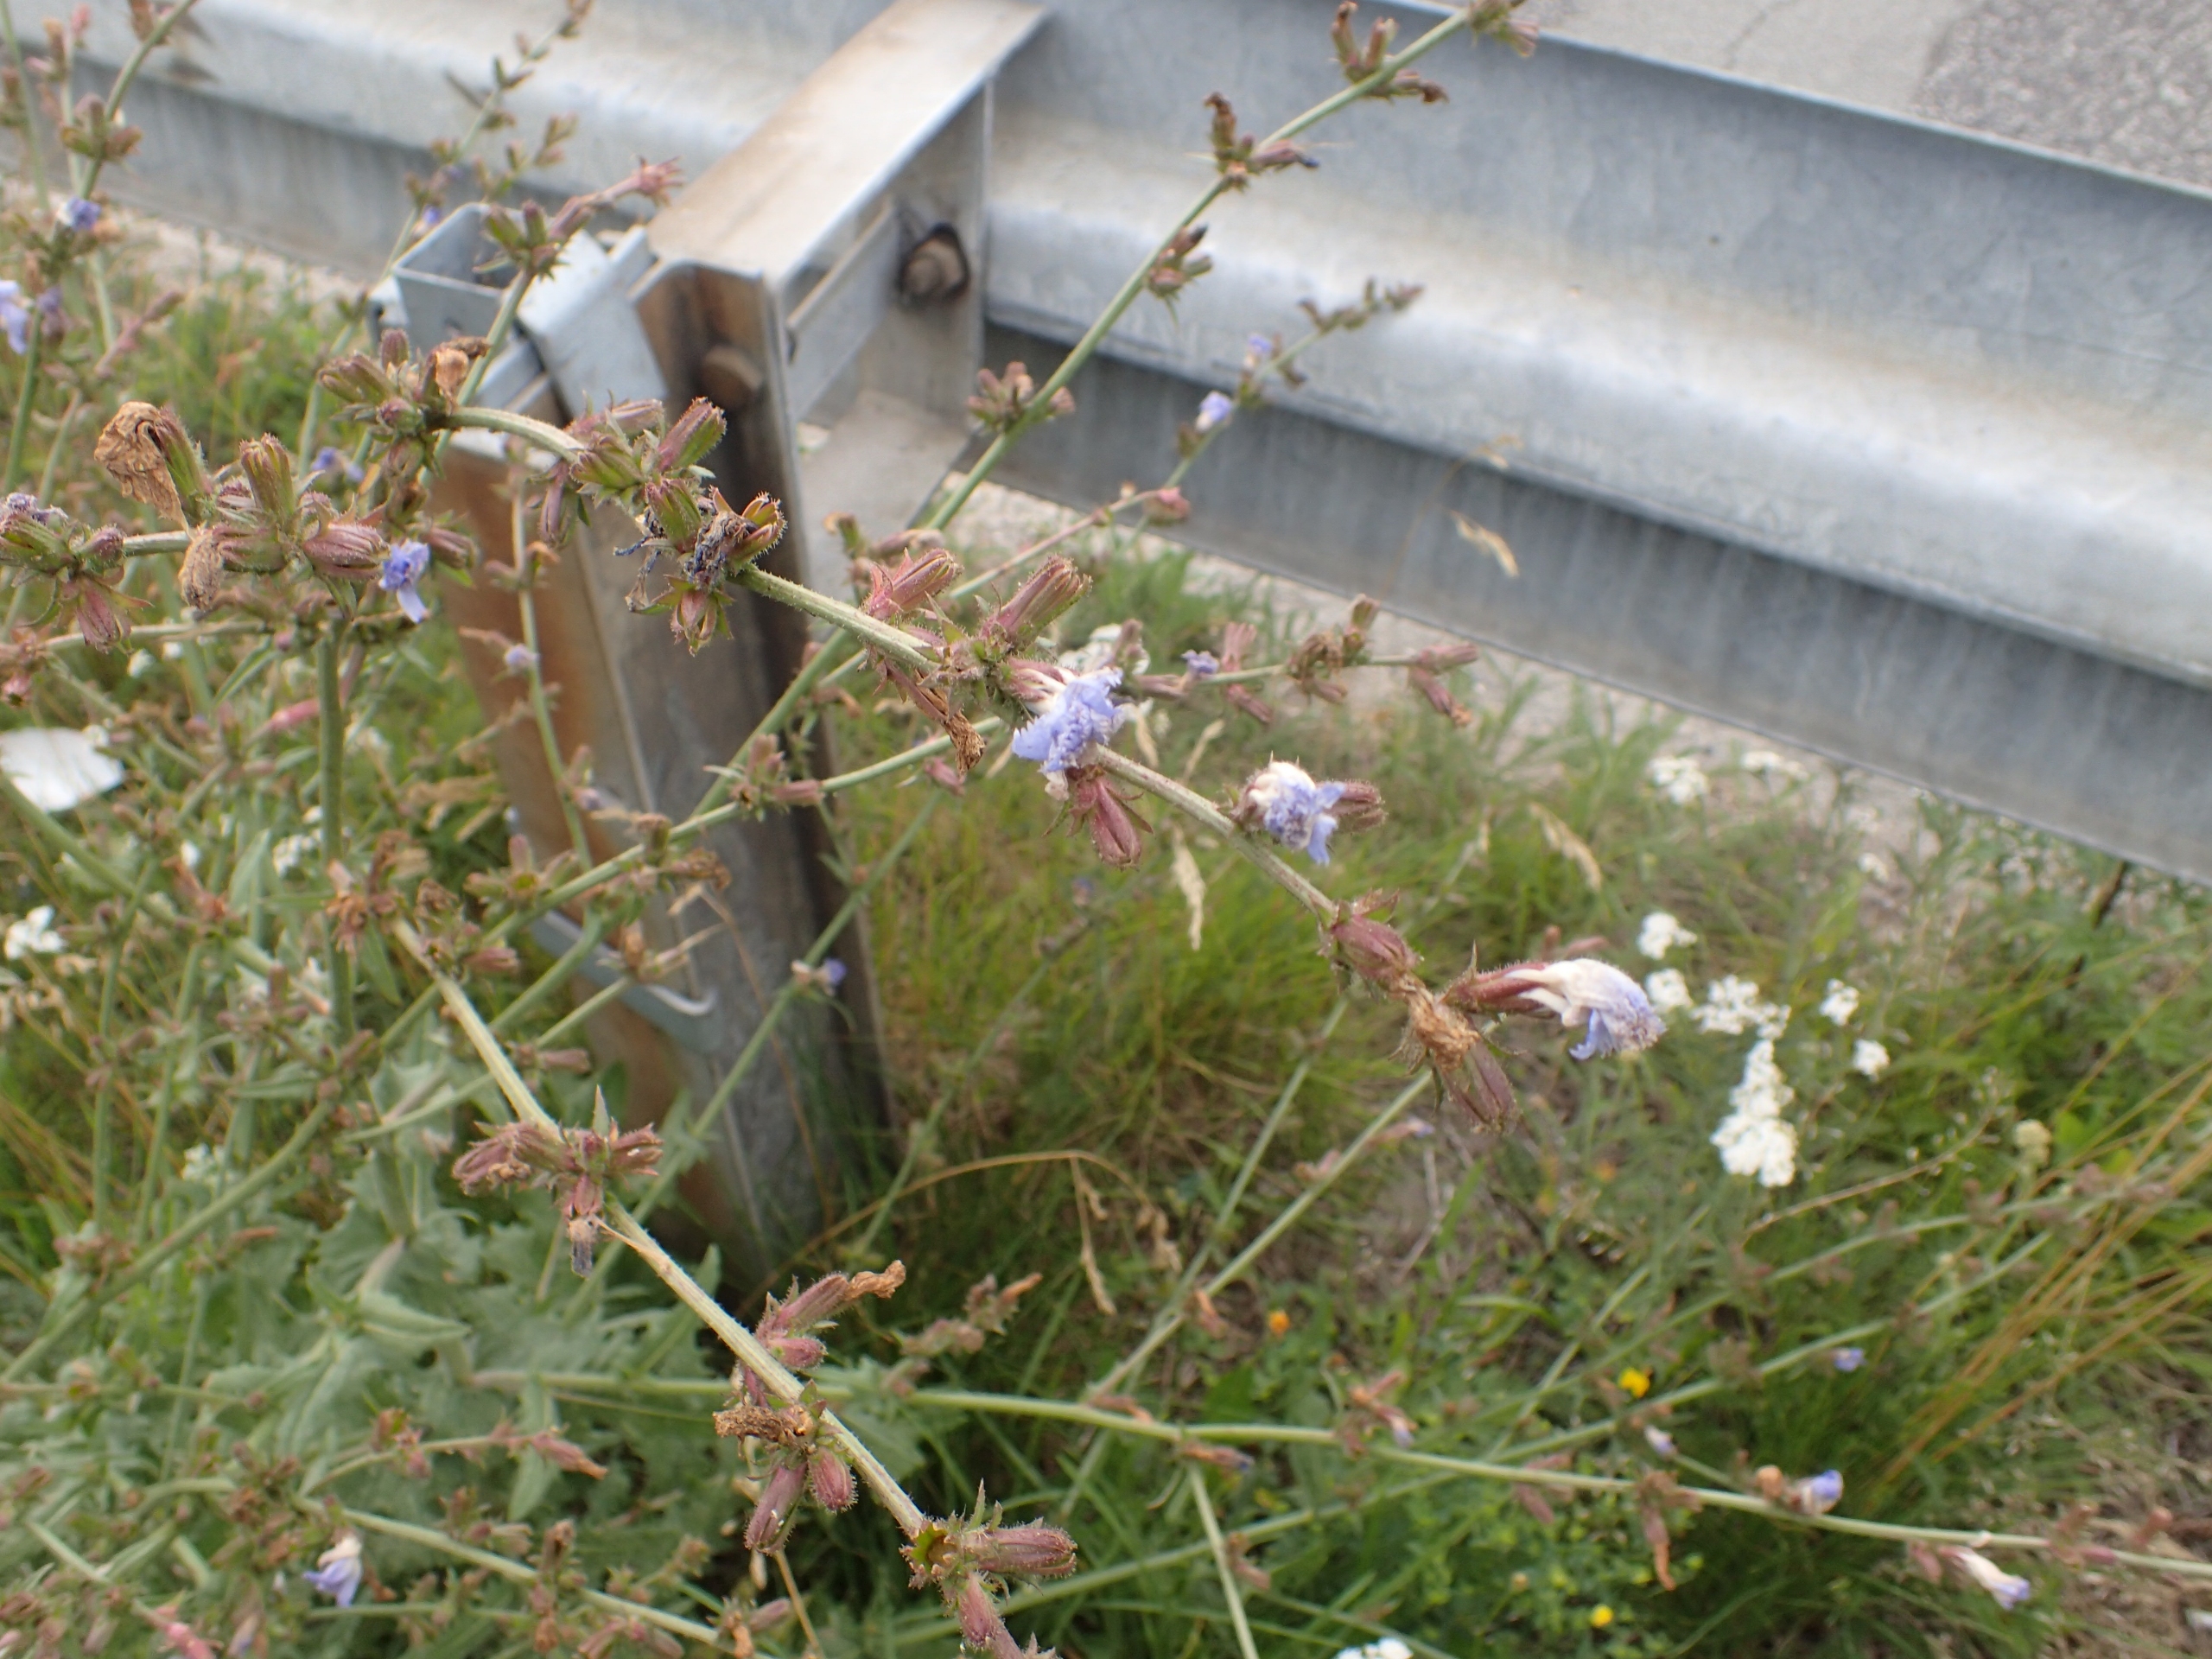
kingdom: Plantae
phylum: Tracheophyta
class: Magnoliopsida
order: Asterales
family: Asteraceae
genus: Cichorium
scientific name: Cichorium intybus
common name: Cikorie
